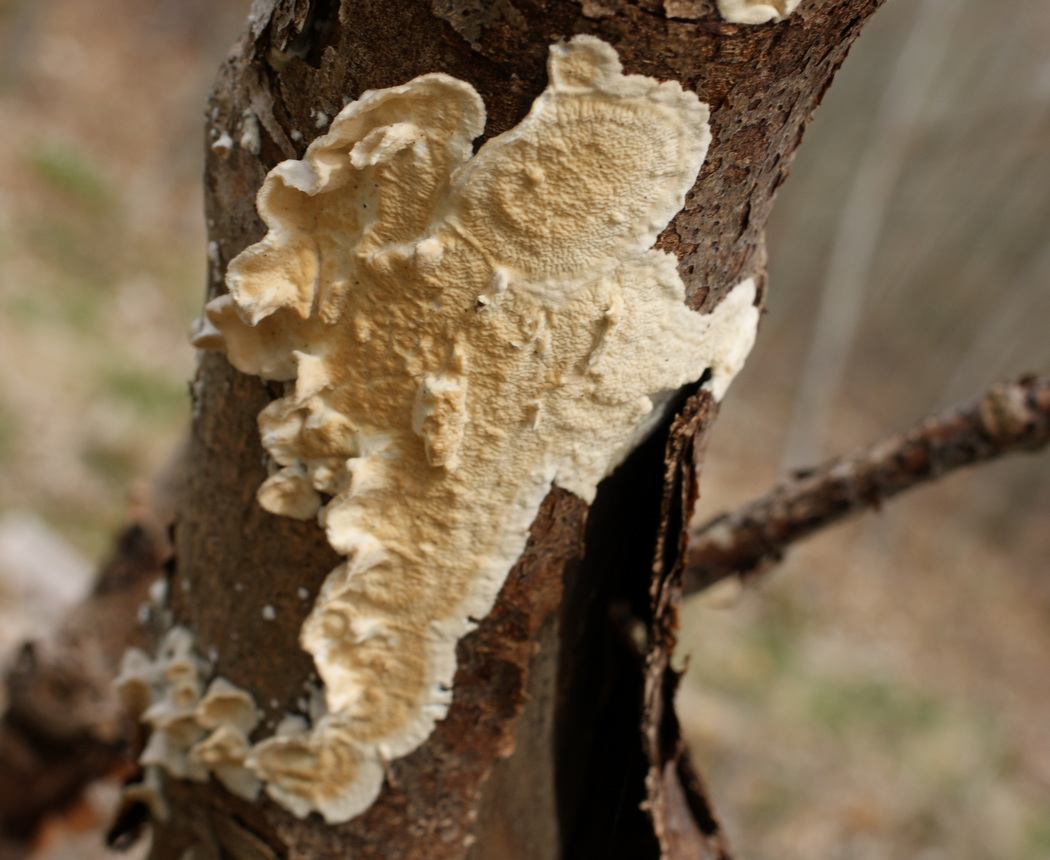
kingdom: Fungi
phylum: Basidiomycota
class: Agaricomycetes
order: Polyporales
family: Irpicaceae
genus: Byssomerulius
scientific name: Byssomerulius corium
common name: læder-åresvamp
